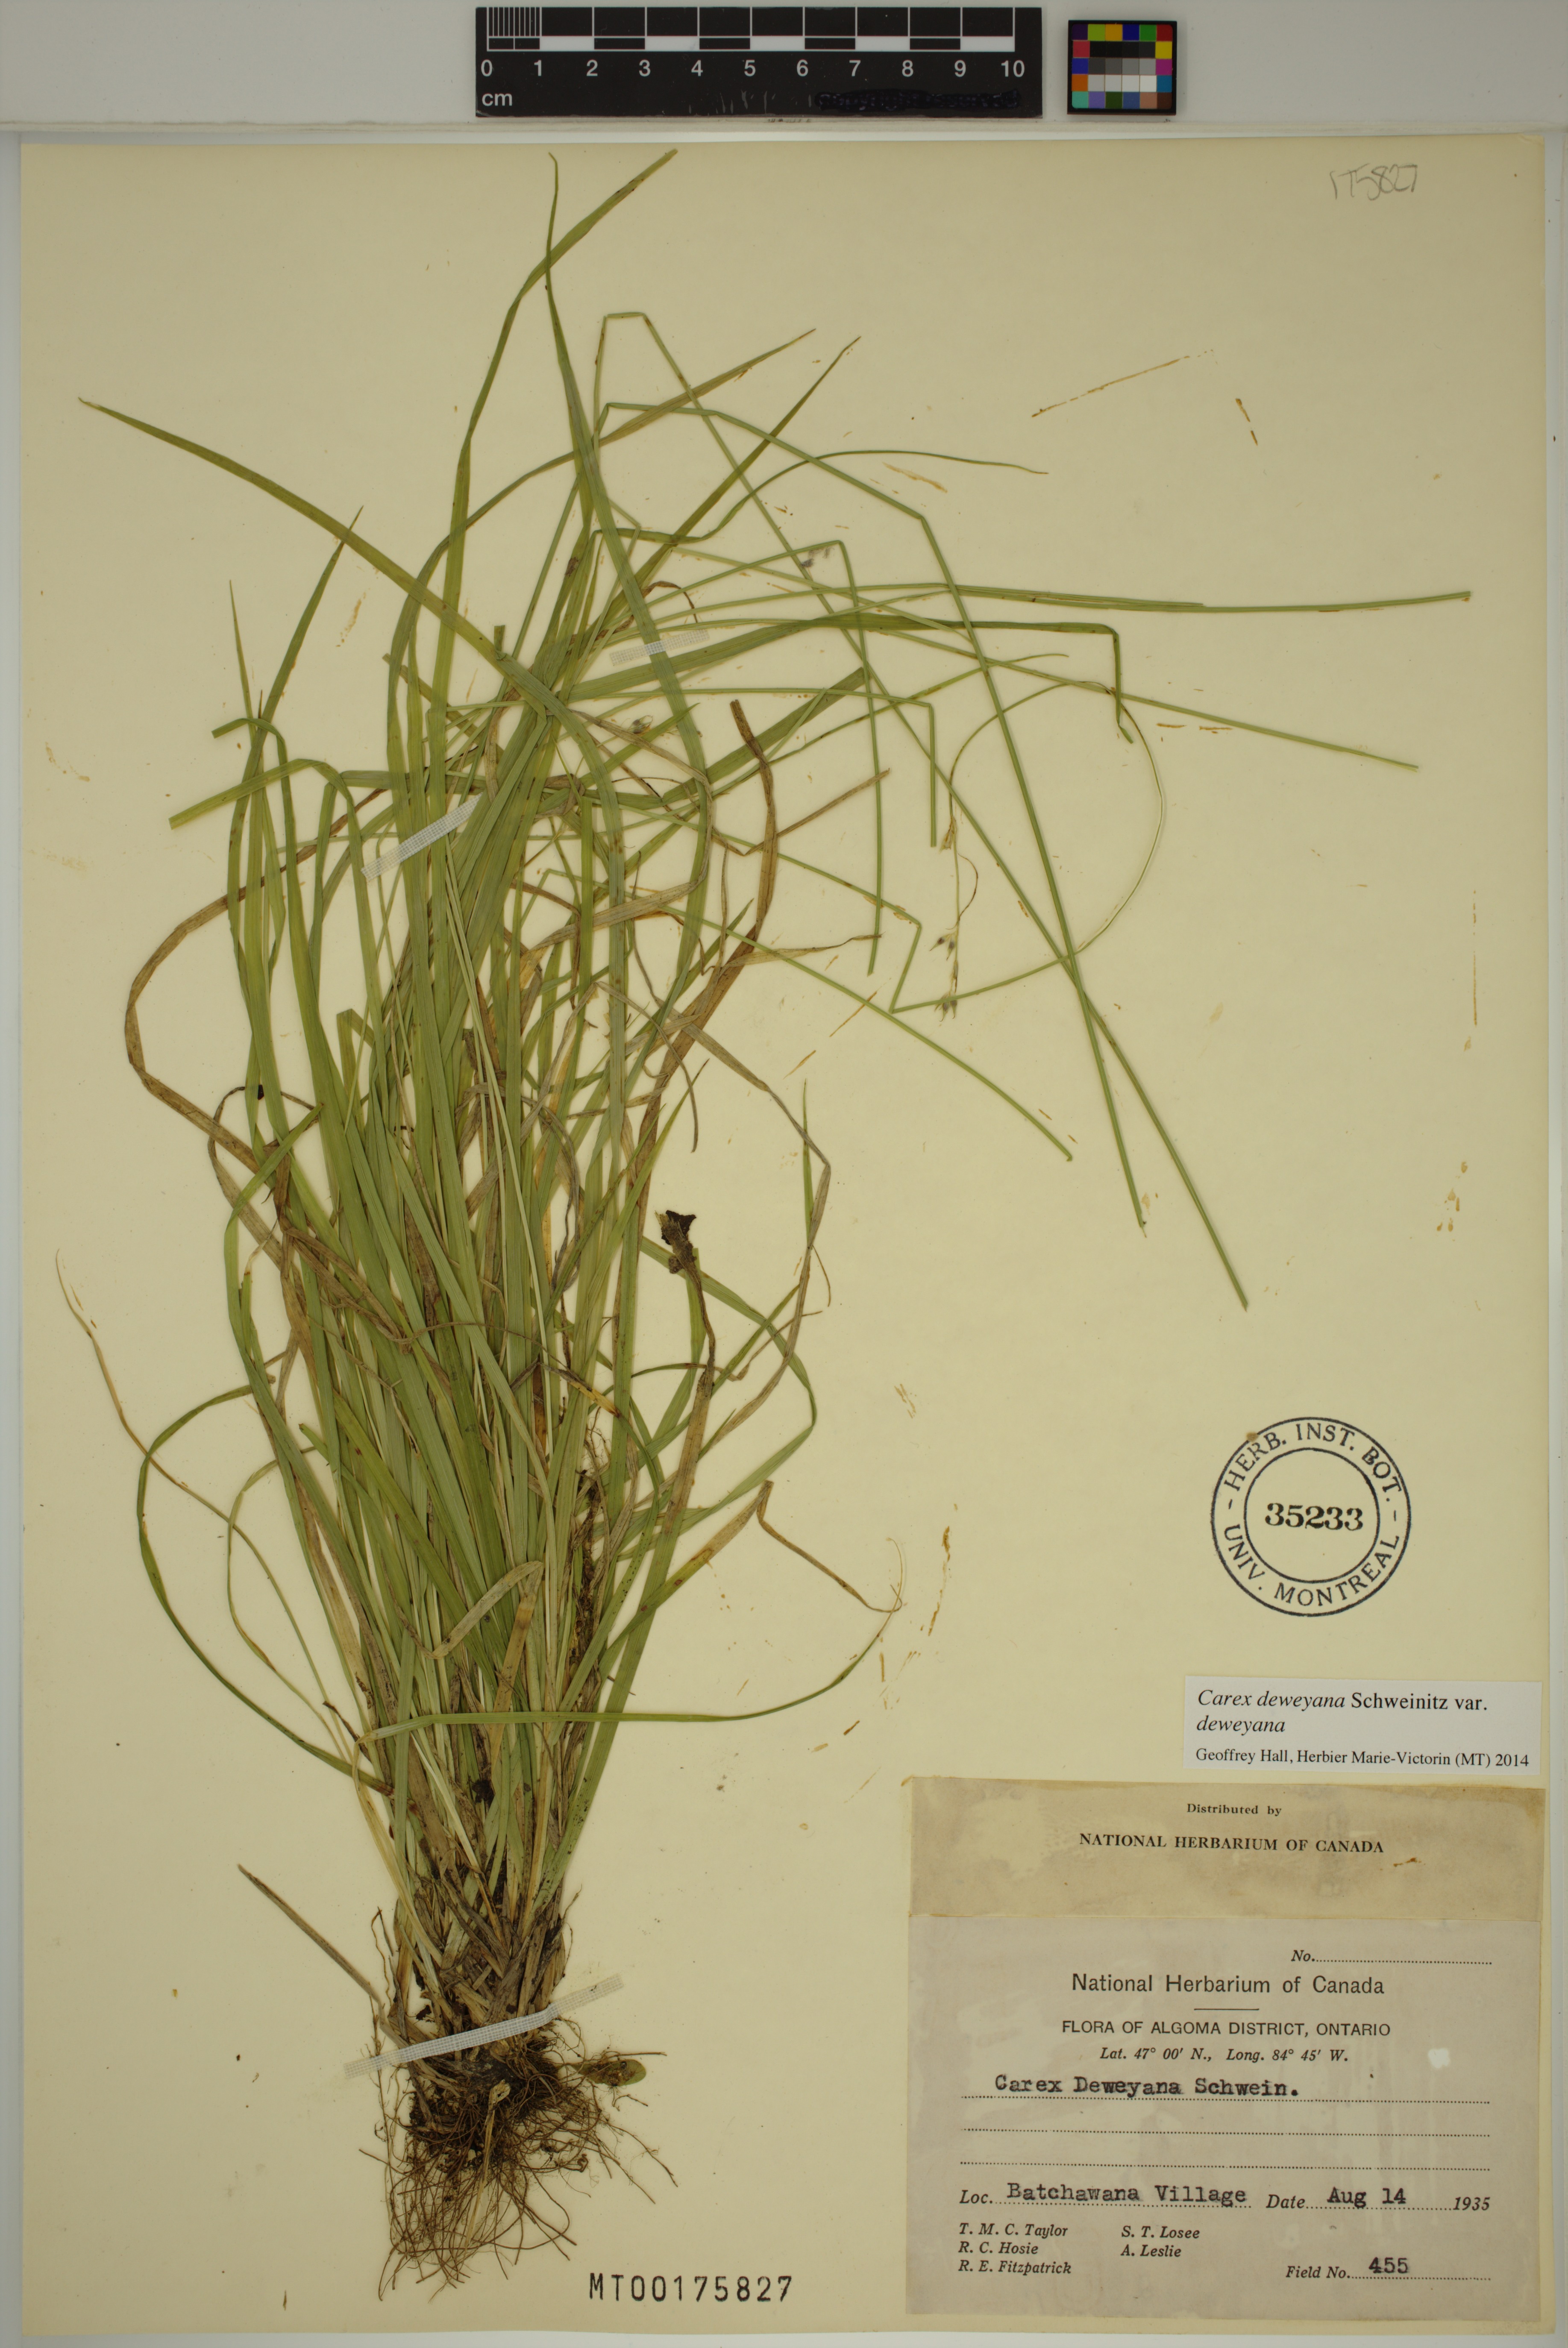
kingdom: Plantae
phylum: Tracheophyta
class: Liliopsida
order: Poales
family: Cyperaceae
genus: Carex
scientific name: Carex deweyana
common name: Dewey's sedge
